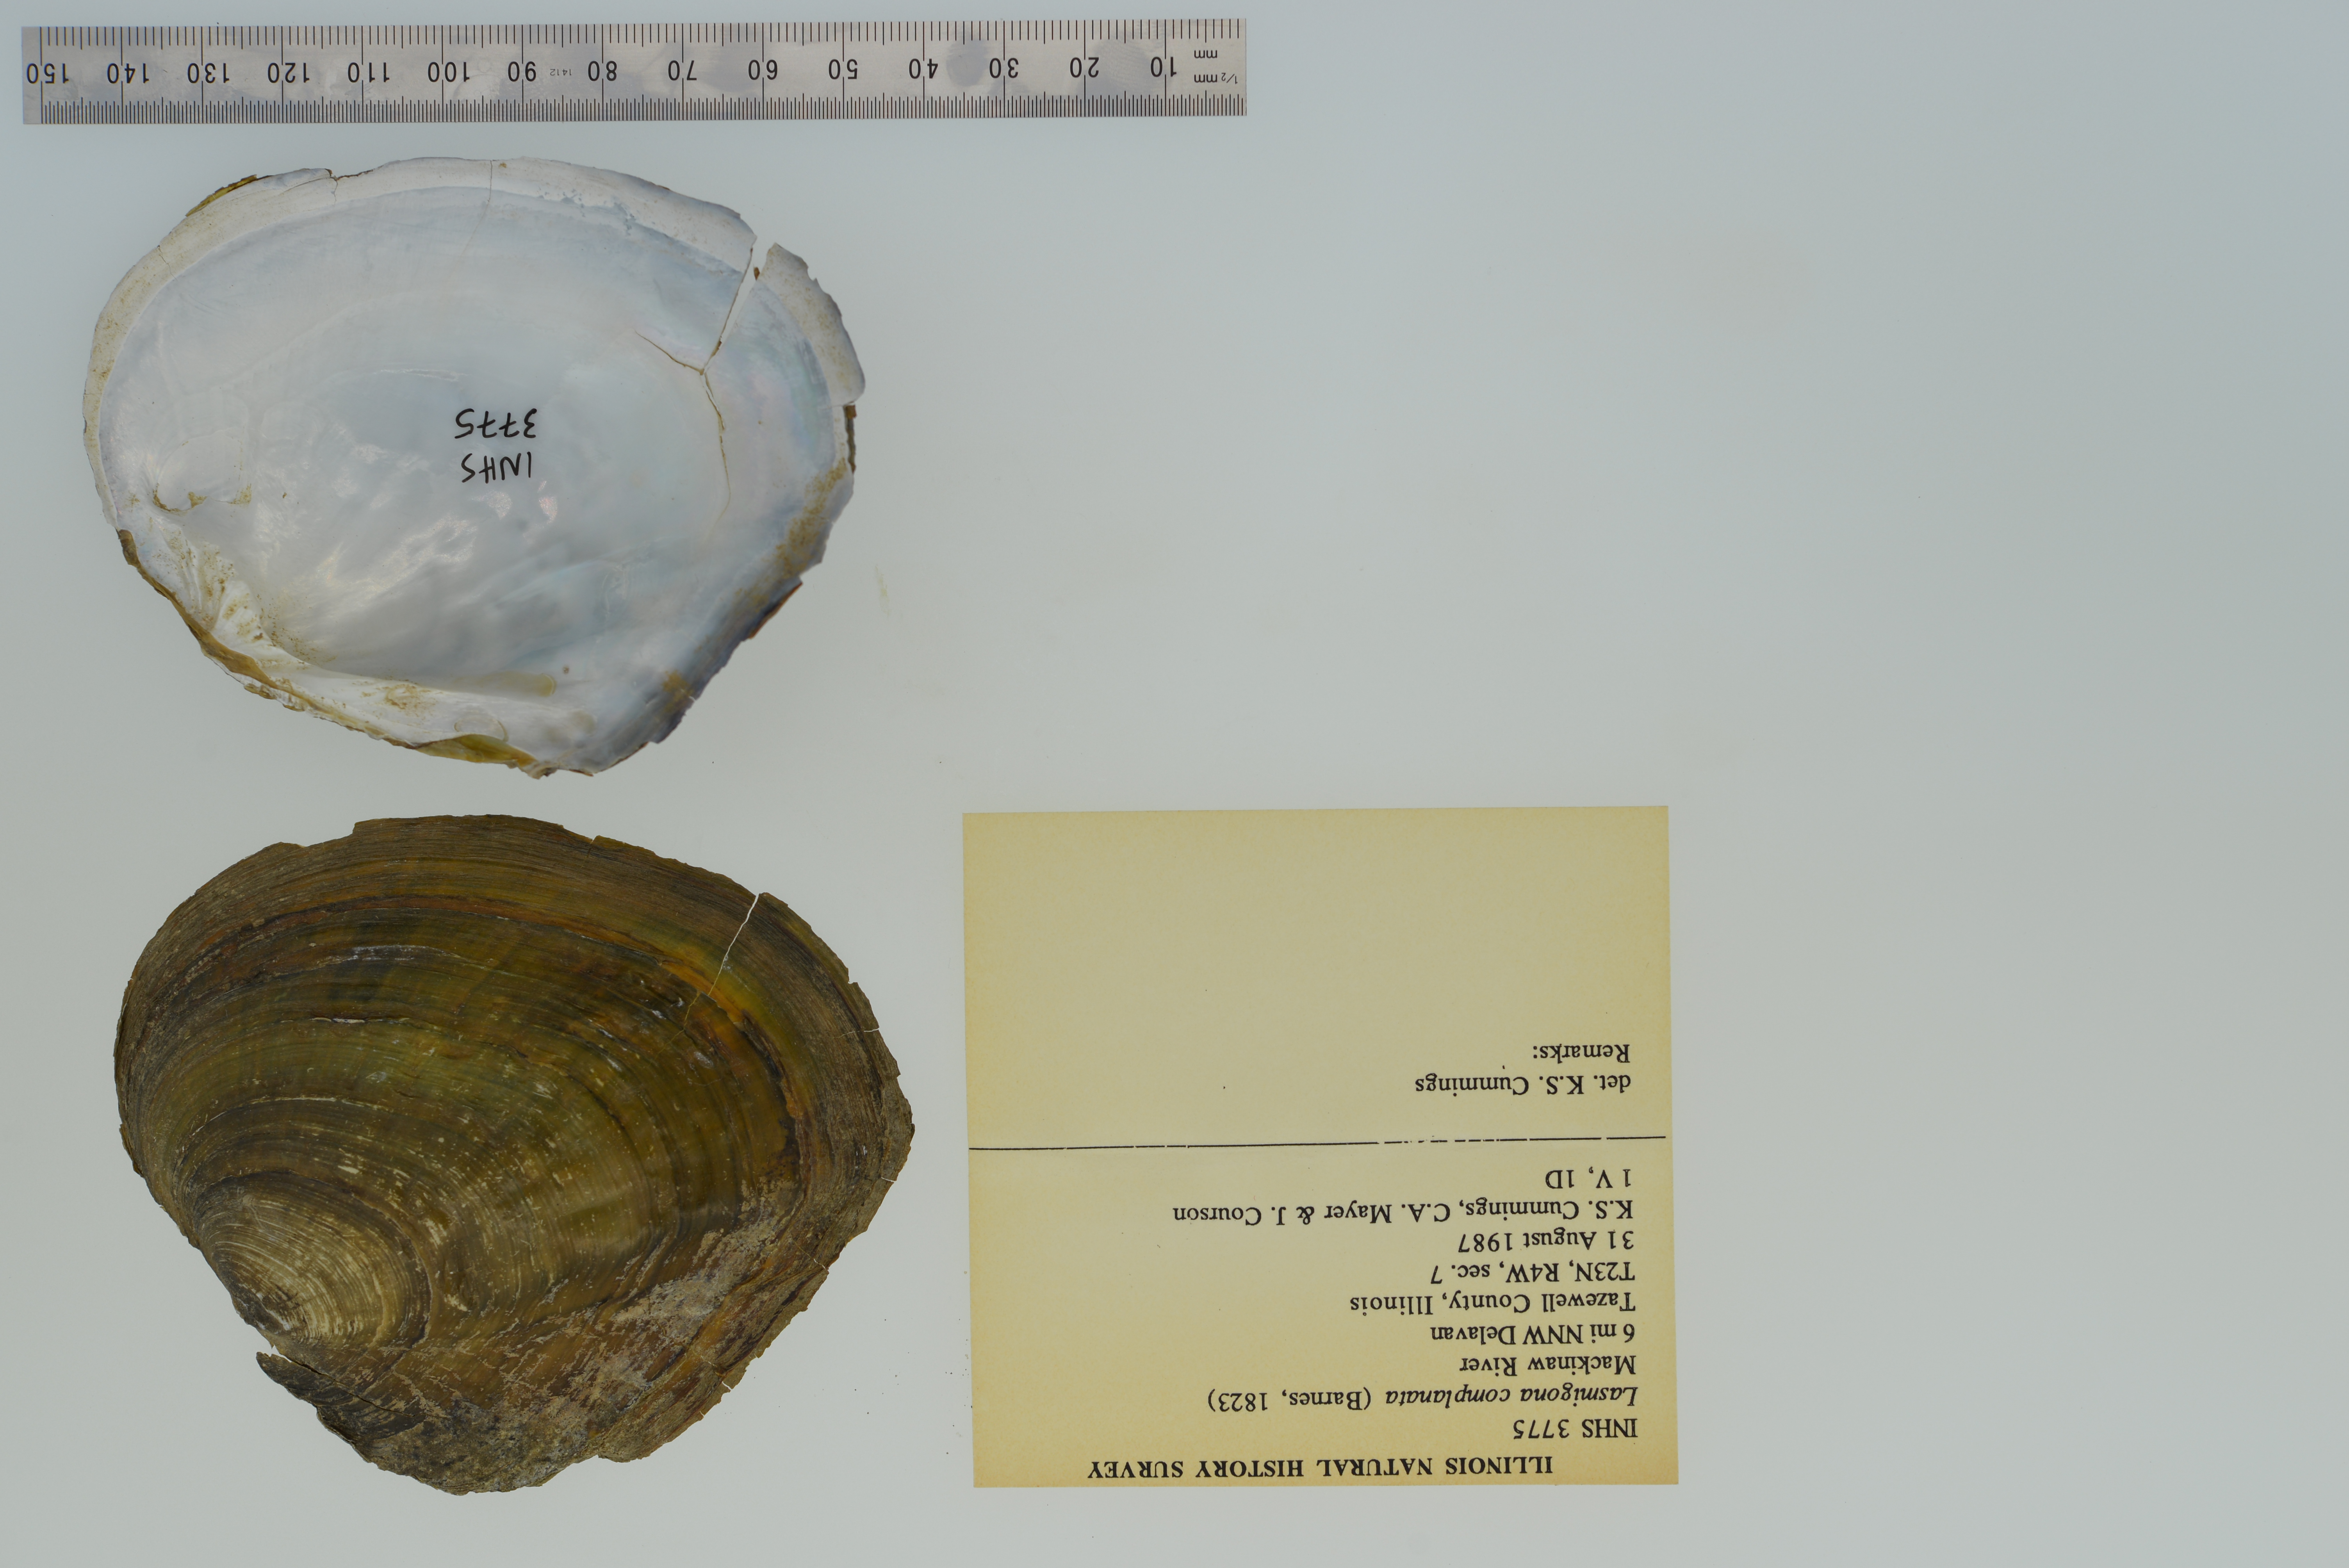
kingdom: Animalia
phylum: Mollusca
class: Bivalvia
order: Unionida
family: Unionidae
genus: Lasmigona
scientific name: Lasmigona complanata
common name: White heelsplitter
